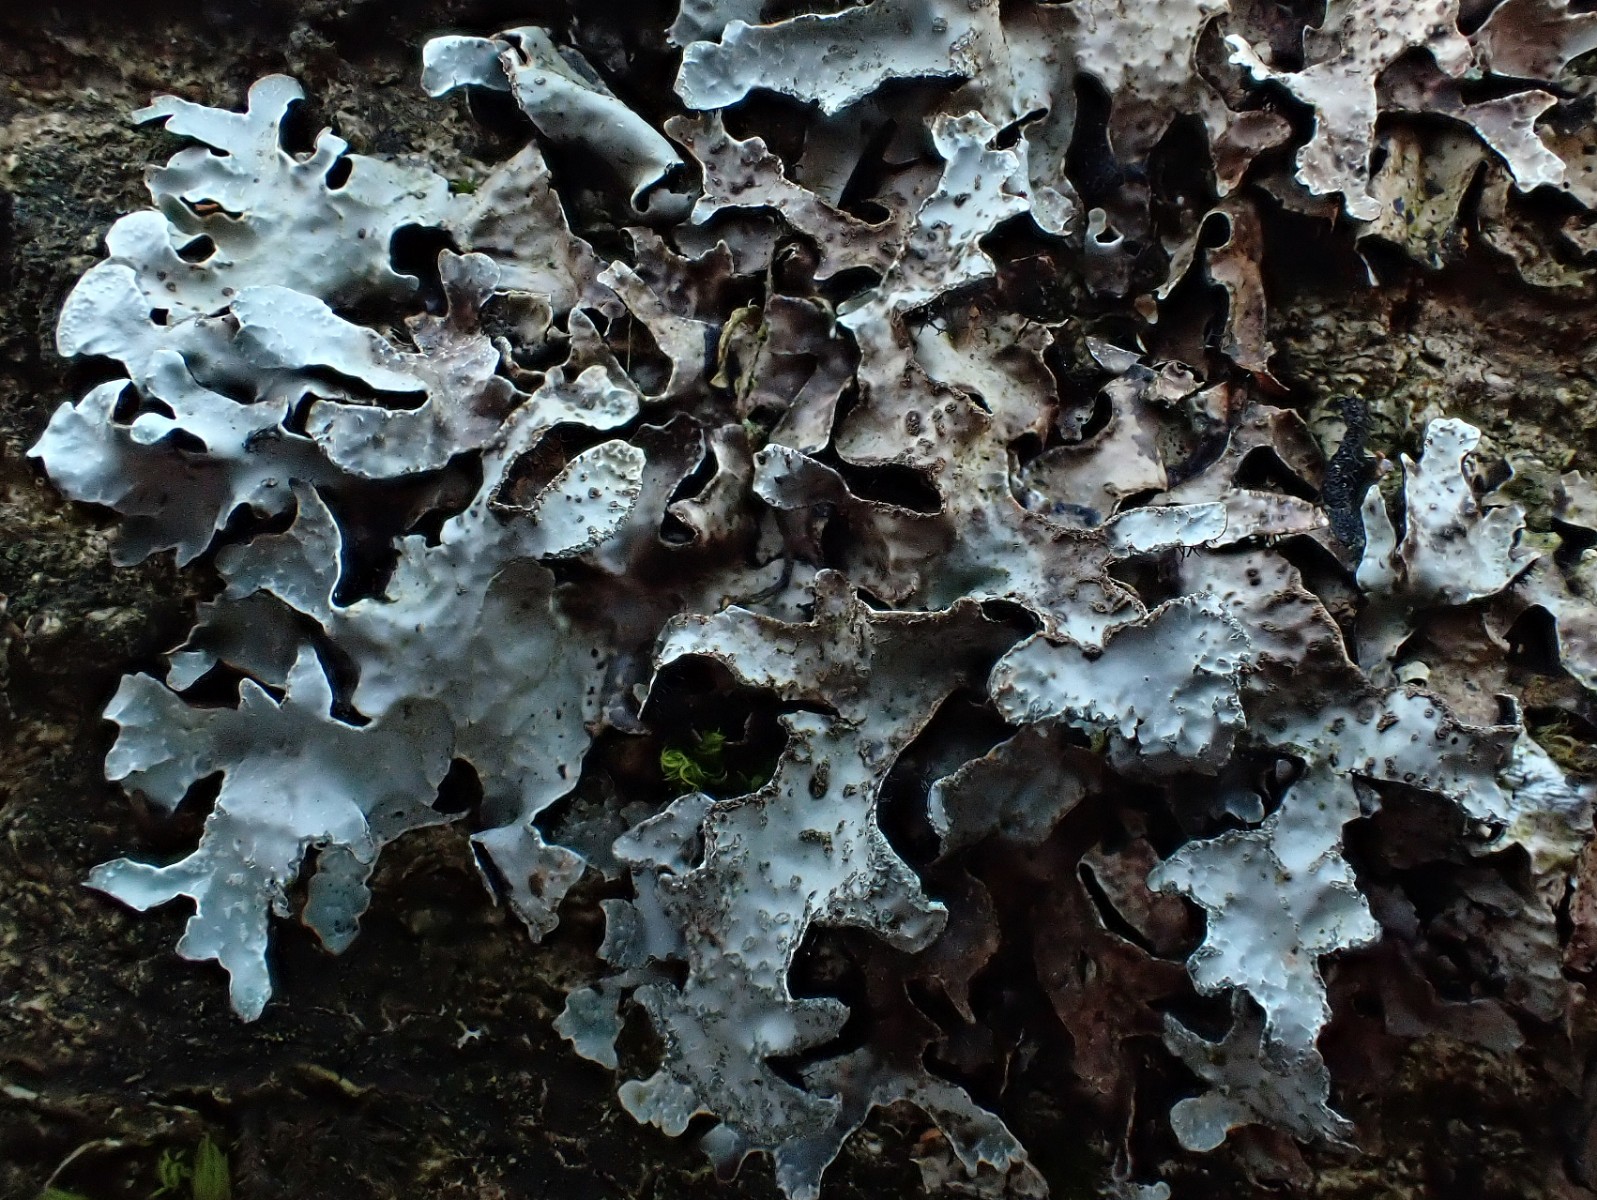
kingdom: Fungi
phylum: Ascomycota
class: Lecanoromycetes
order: Lecanorales
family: Parmeliaceae
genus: Parmelia
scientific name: Parmelia sulcata
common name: rynket skållav
